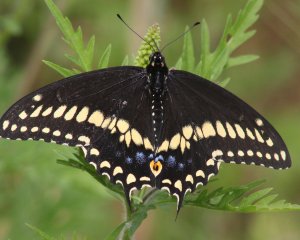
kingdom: Animalia
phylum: Arthropoda
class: Insecta
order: Lepidoptera
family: Papilionidae
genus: Papilio
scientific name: Papilio polyxenes
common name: Black Swallowtail
